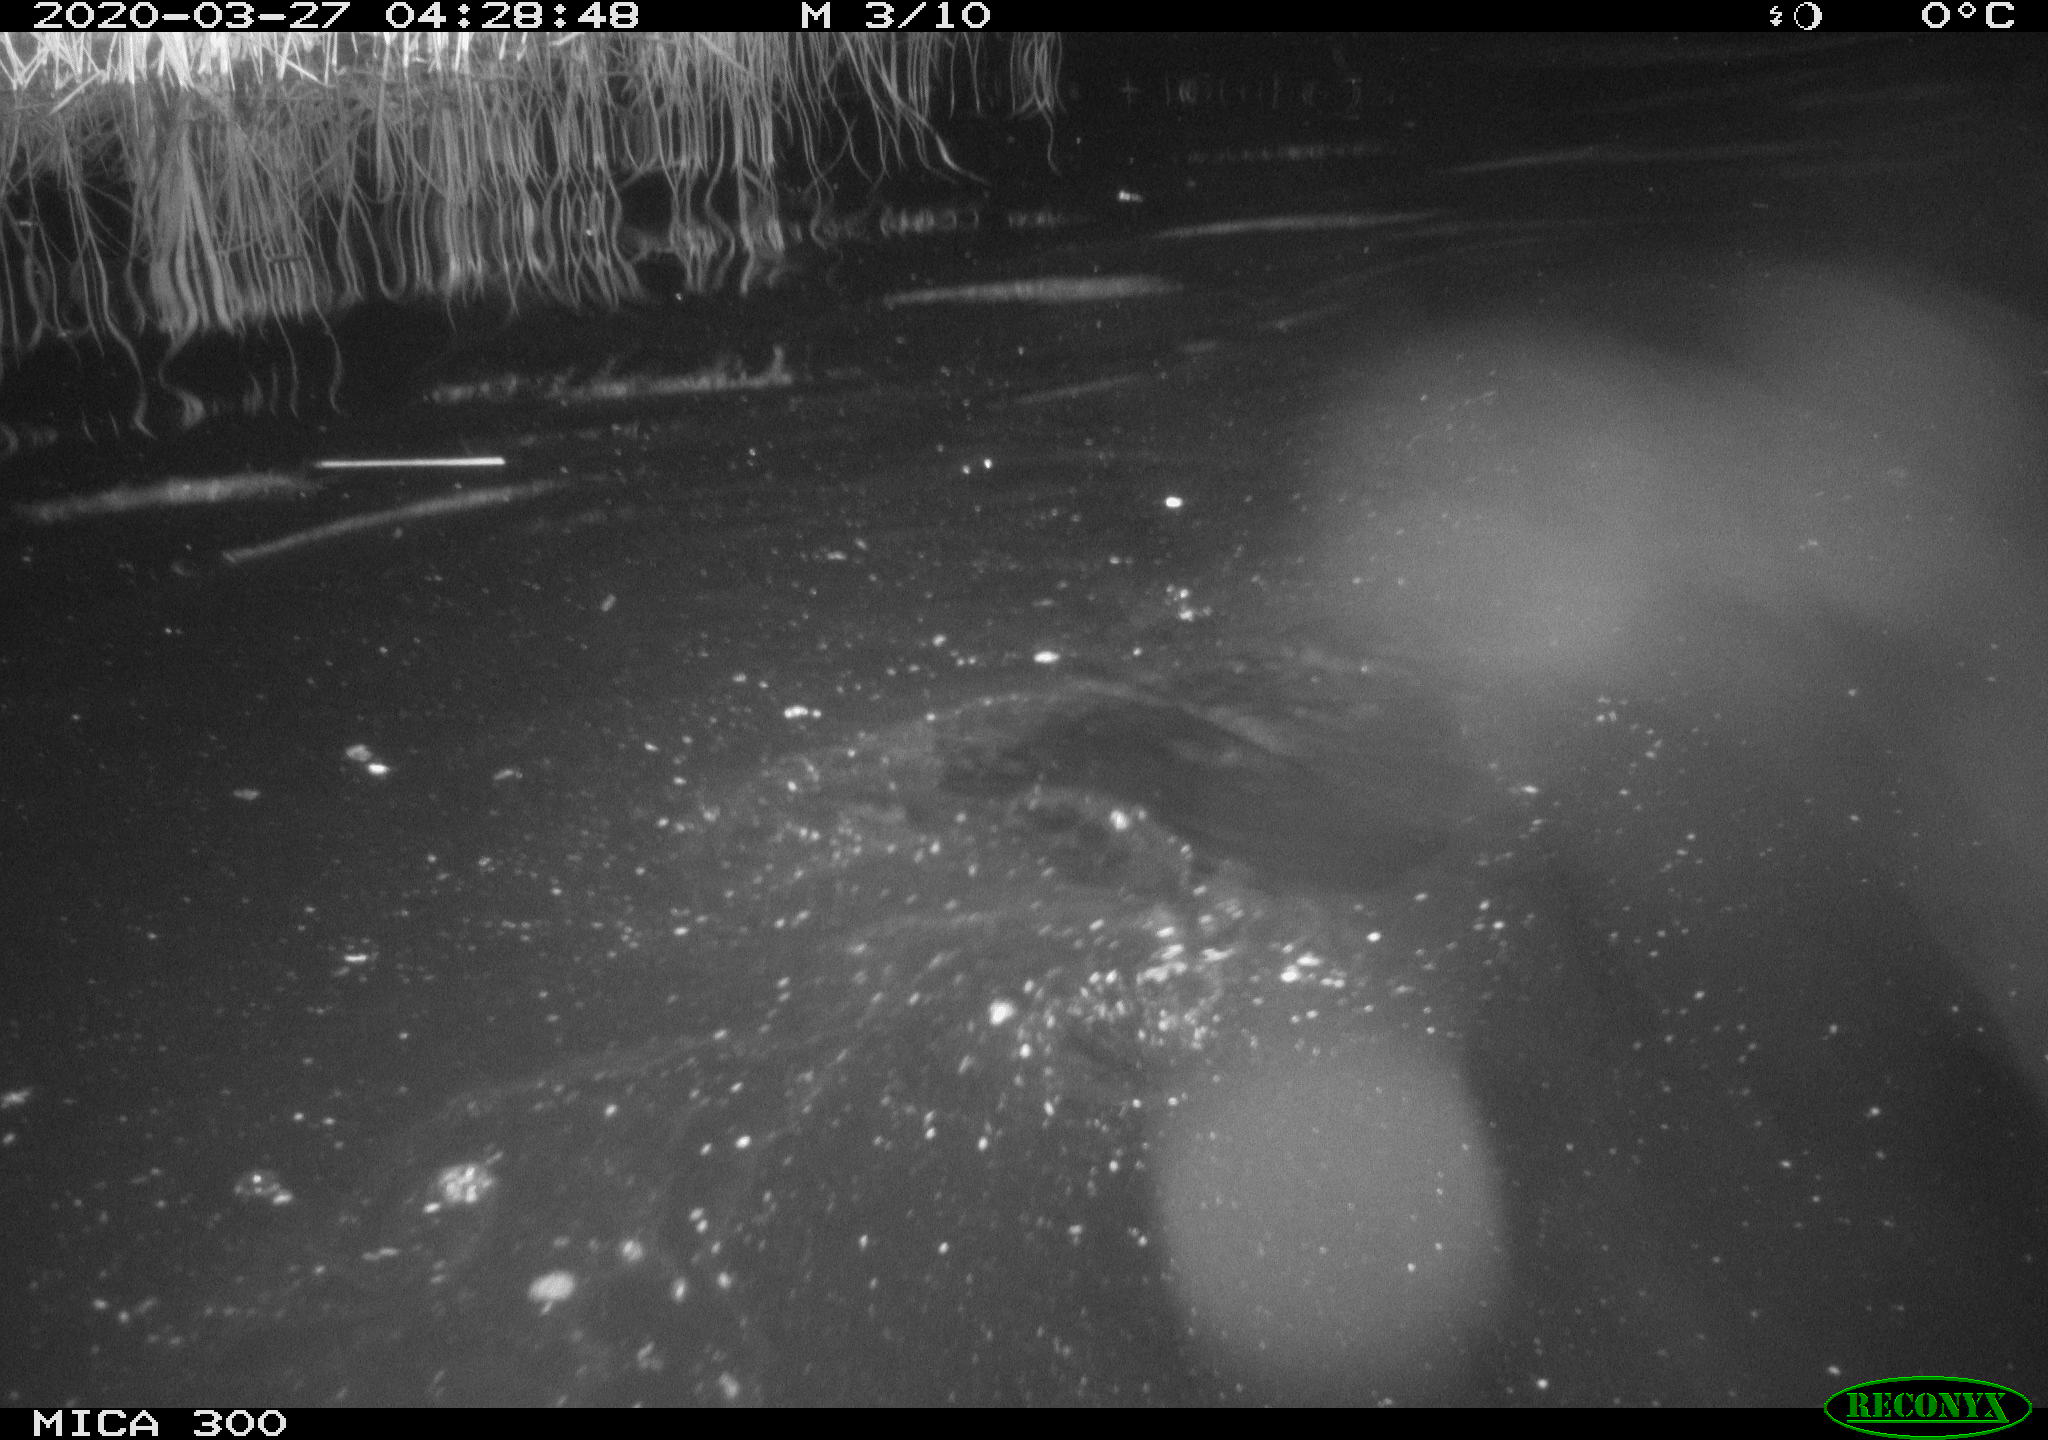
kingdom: Animalia
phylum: Chordata
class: Mammalia
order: Rodentia
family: Castoridae
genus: Castor
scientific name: Castor fiber
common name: Eurasian beaver
